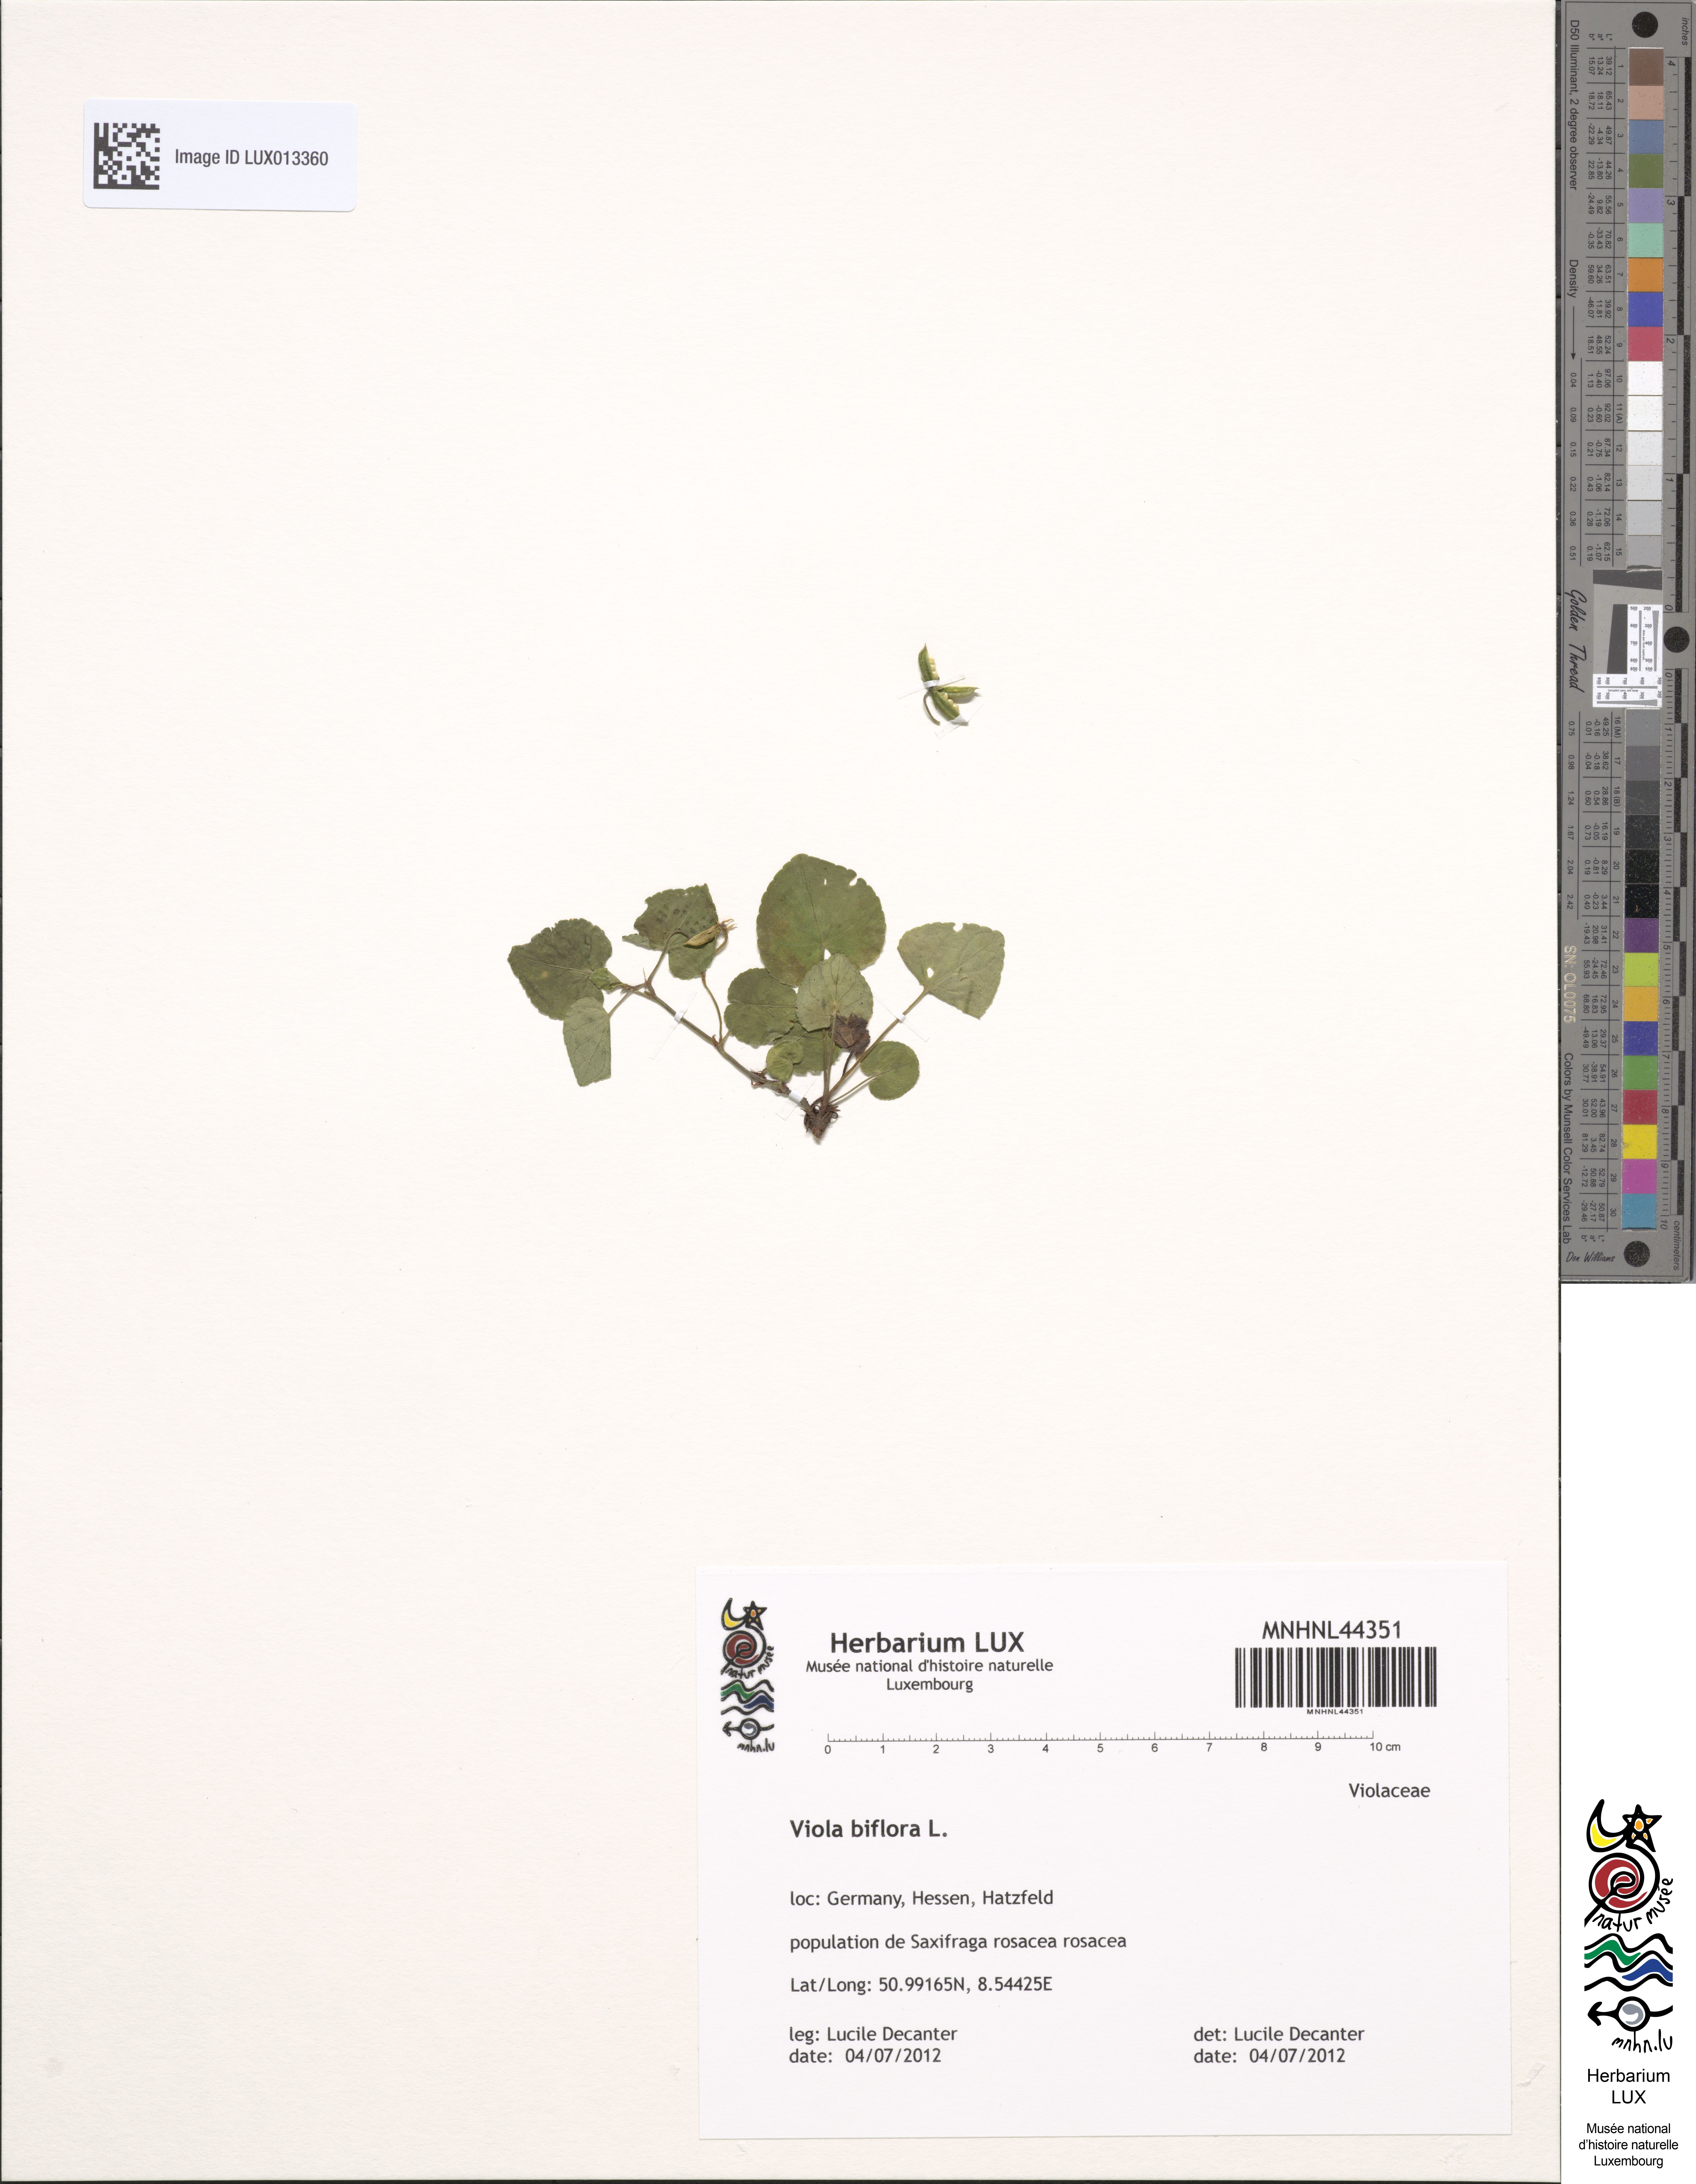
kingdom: Plantae
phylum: Tracheophyta
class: Magnoliopsida
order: Malpighiales
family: Violaceae
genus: Viola
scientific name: Viola biflora
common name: Alpine yellow violet
